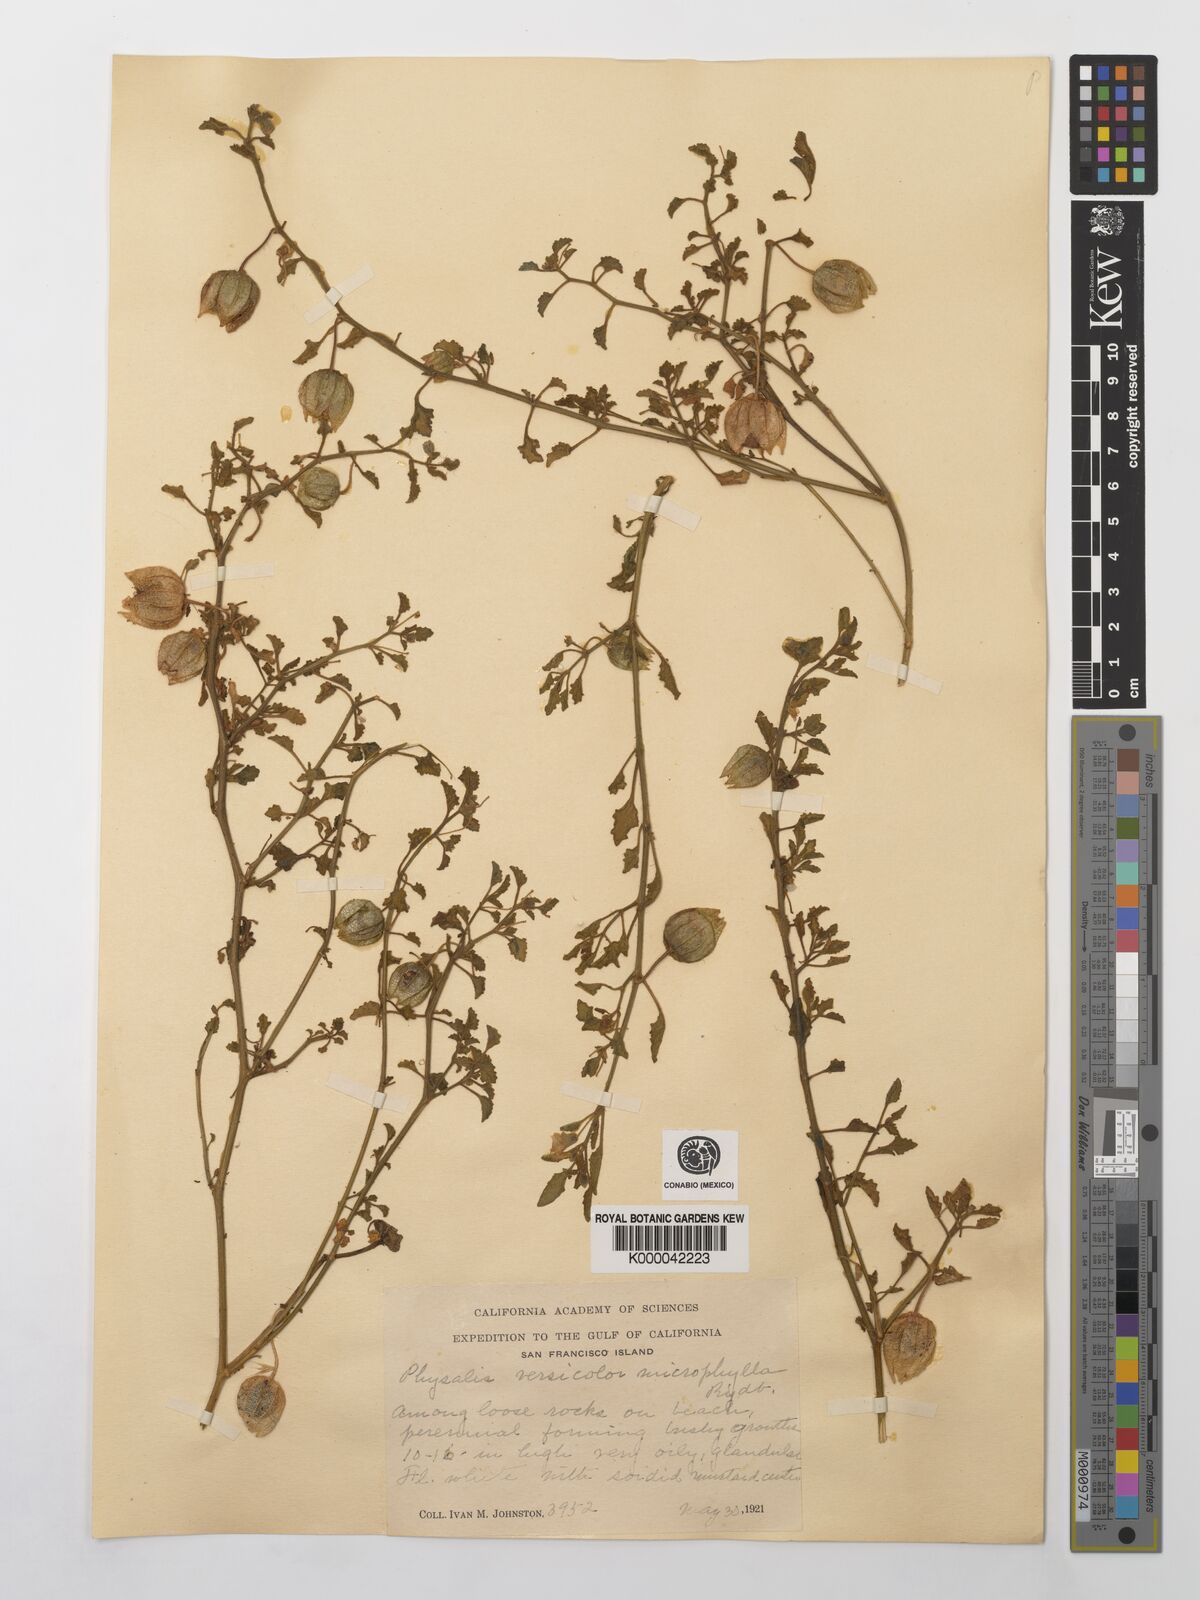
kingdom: Plantae
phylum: Tracheophyta
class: Magnoliopsida
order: Solanales
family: Solanaceae
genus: Physalis
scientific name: Physalis crassifolia
